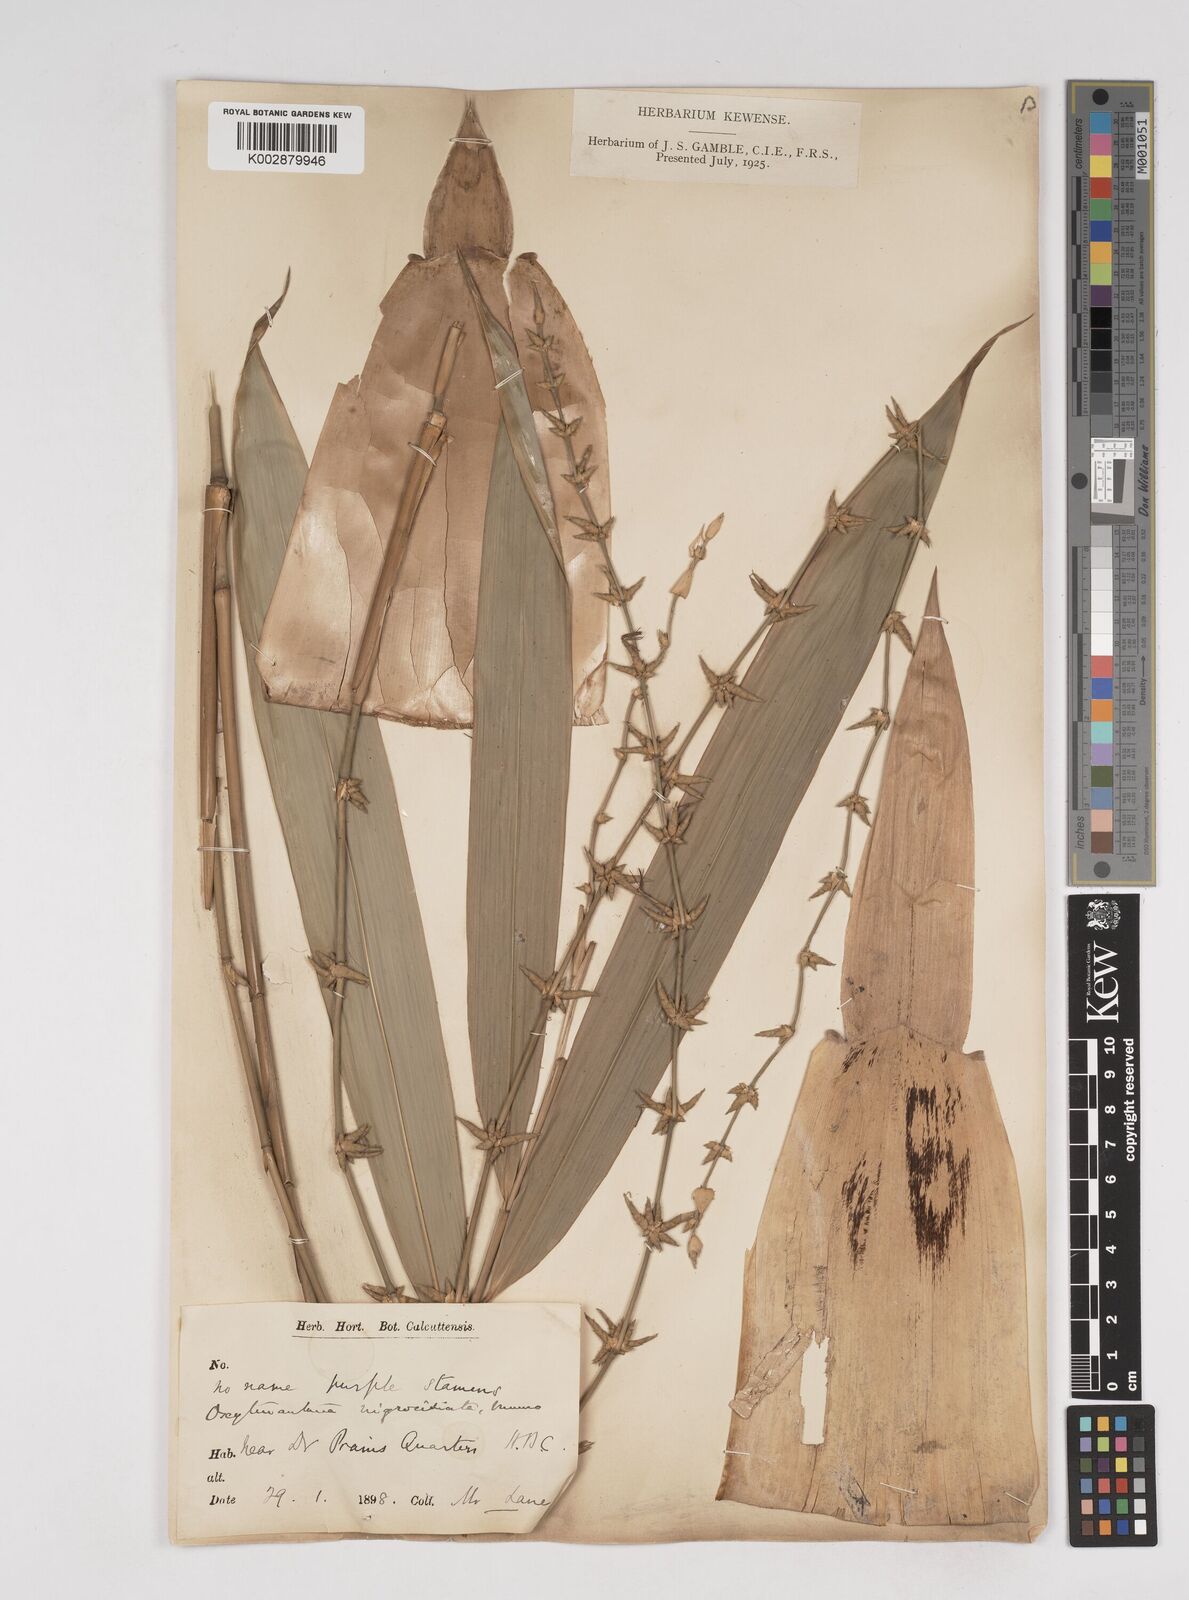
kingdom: Plantae
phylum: Tracheophyta
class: Liliopsida
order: Poales
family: Poaceae
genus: Gigantochloa
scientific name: Gigantochloa nigrociliata
